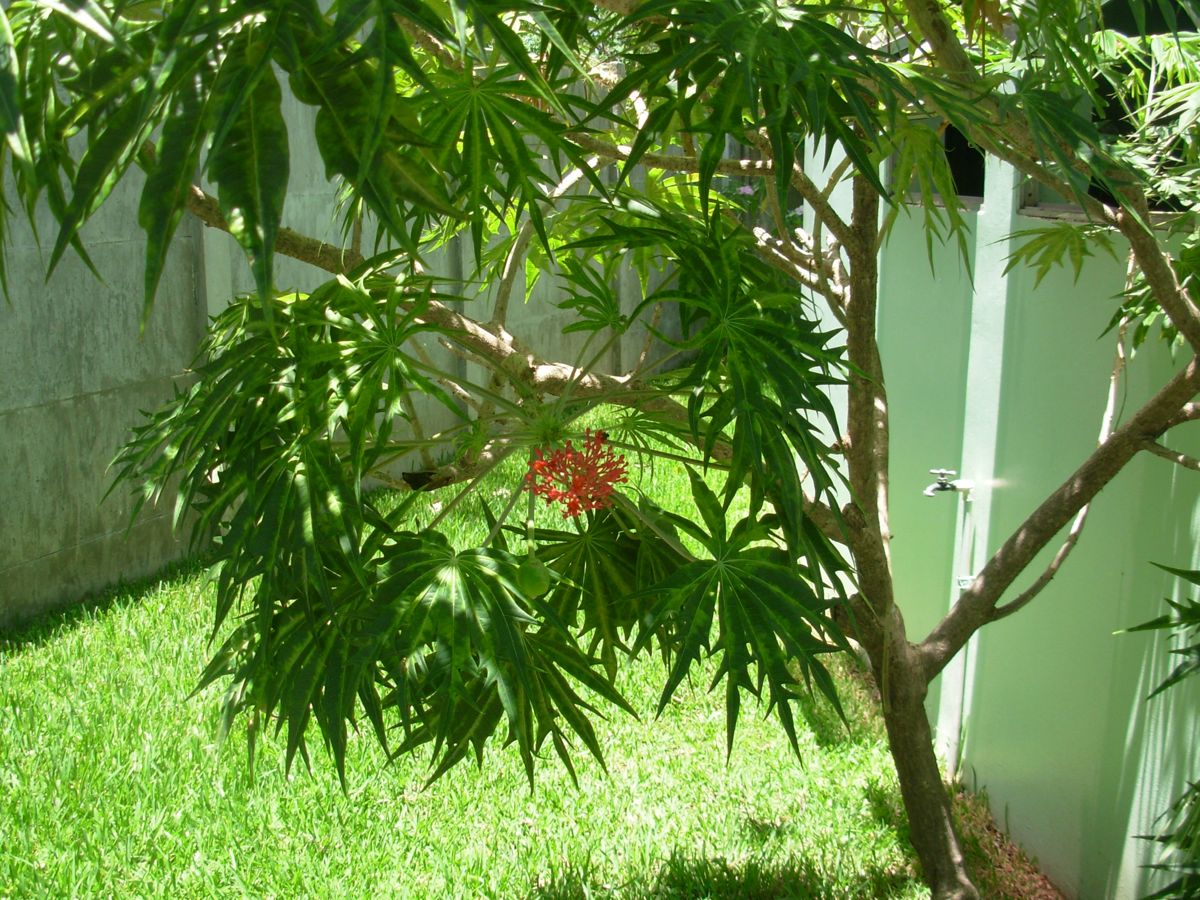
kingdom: Plantae
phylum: Tracheophyta
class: Magnoliopsida
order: Malpighiales
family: Euphorbiaceae
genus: Jatropha
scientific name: Jatropha multifida
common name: Coralbush
